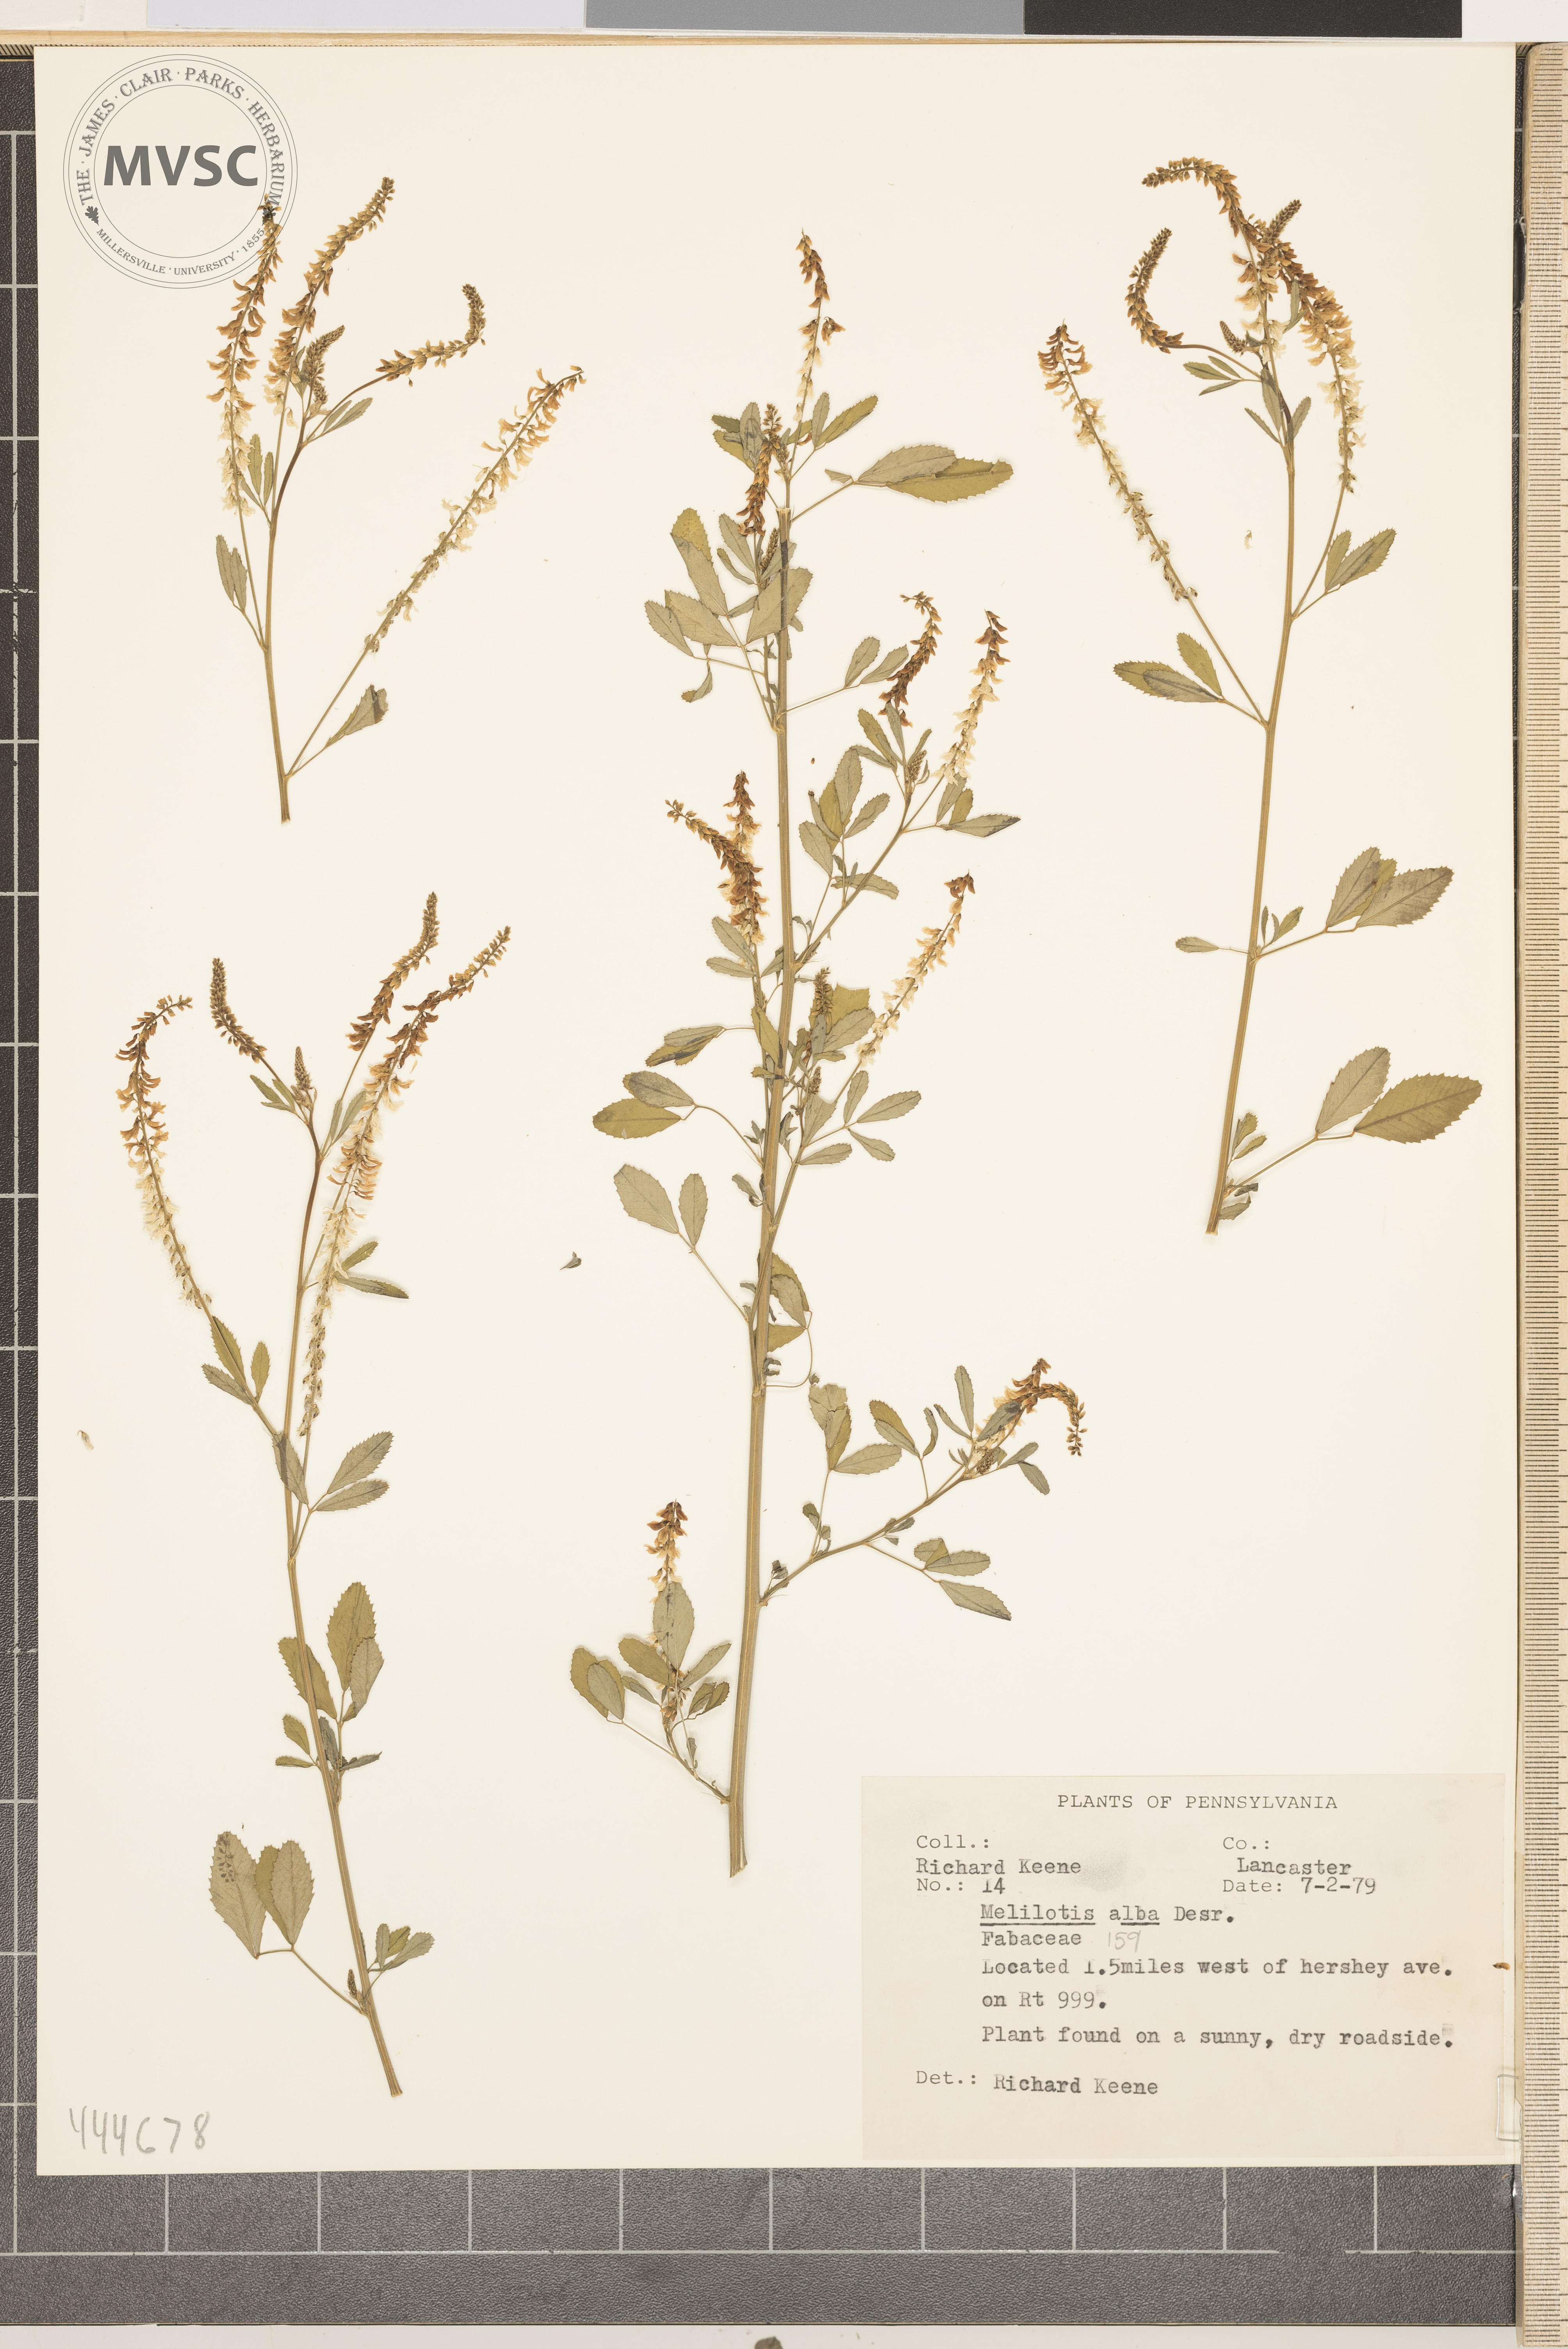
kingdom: Plantae
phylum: Tracheophyta
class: Magnoliopsida
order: Fabales
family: Fabaceae
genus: Melilotus
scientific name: Melilotus albus
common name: White melilot
